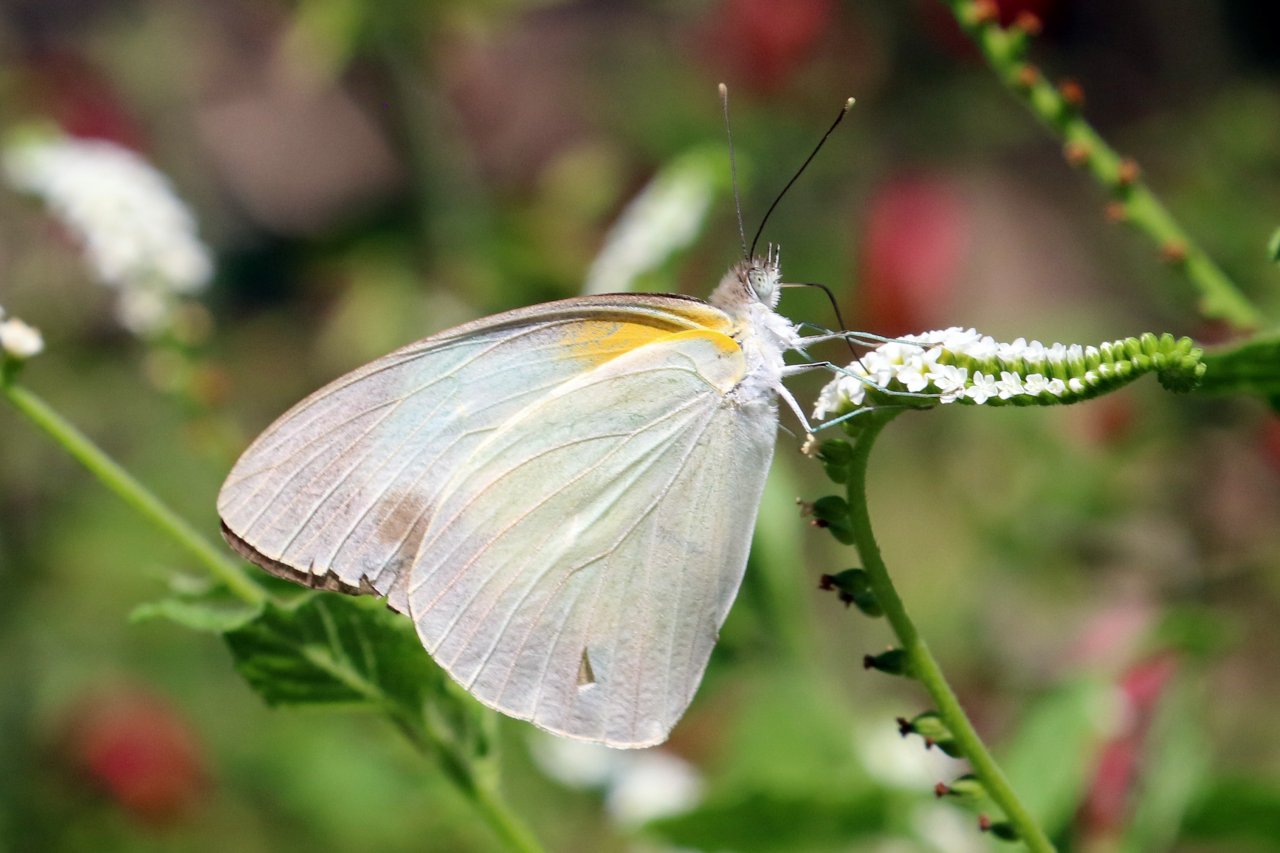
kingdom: Animalia
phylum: Arthropoda
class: Insecta
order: Lepidoptera
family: Pieridae
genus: Glutophrissa
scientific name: Glutophrissa drusilla
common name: Florida White
